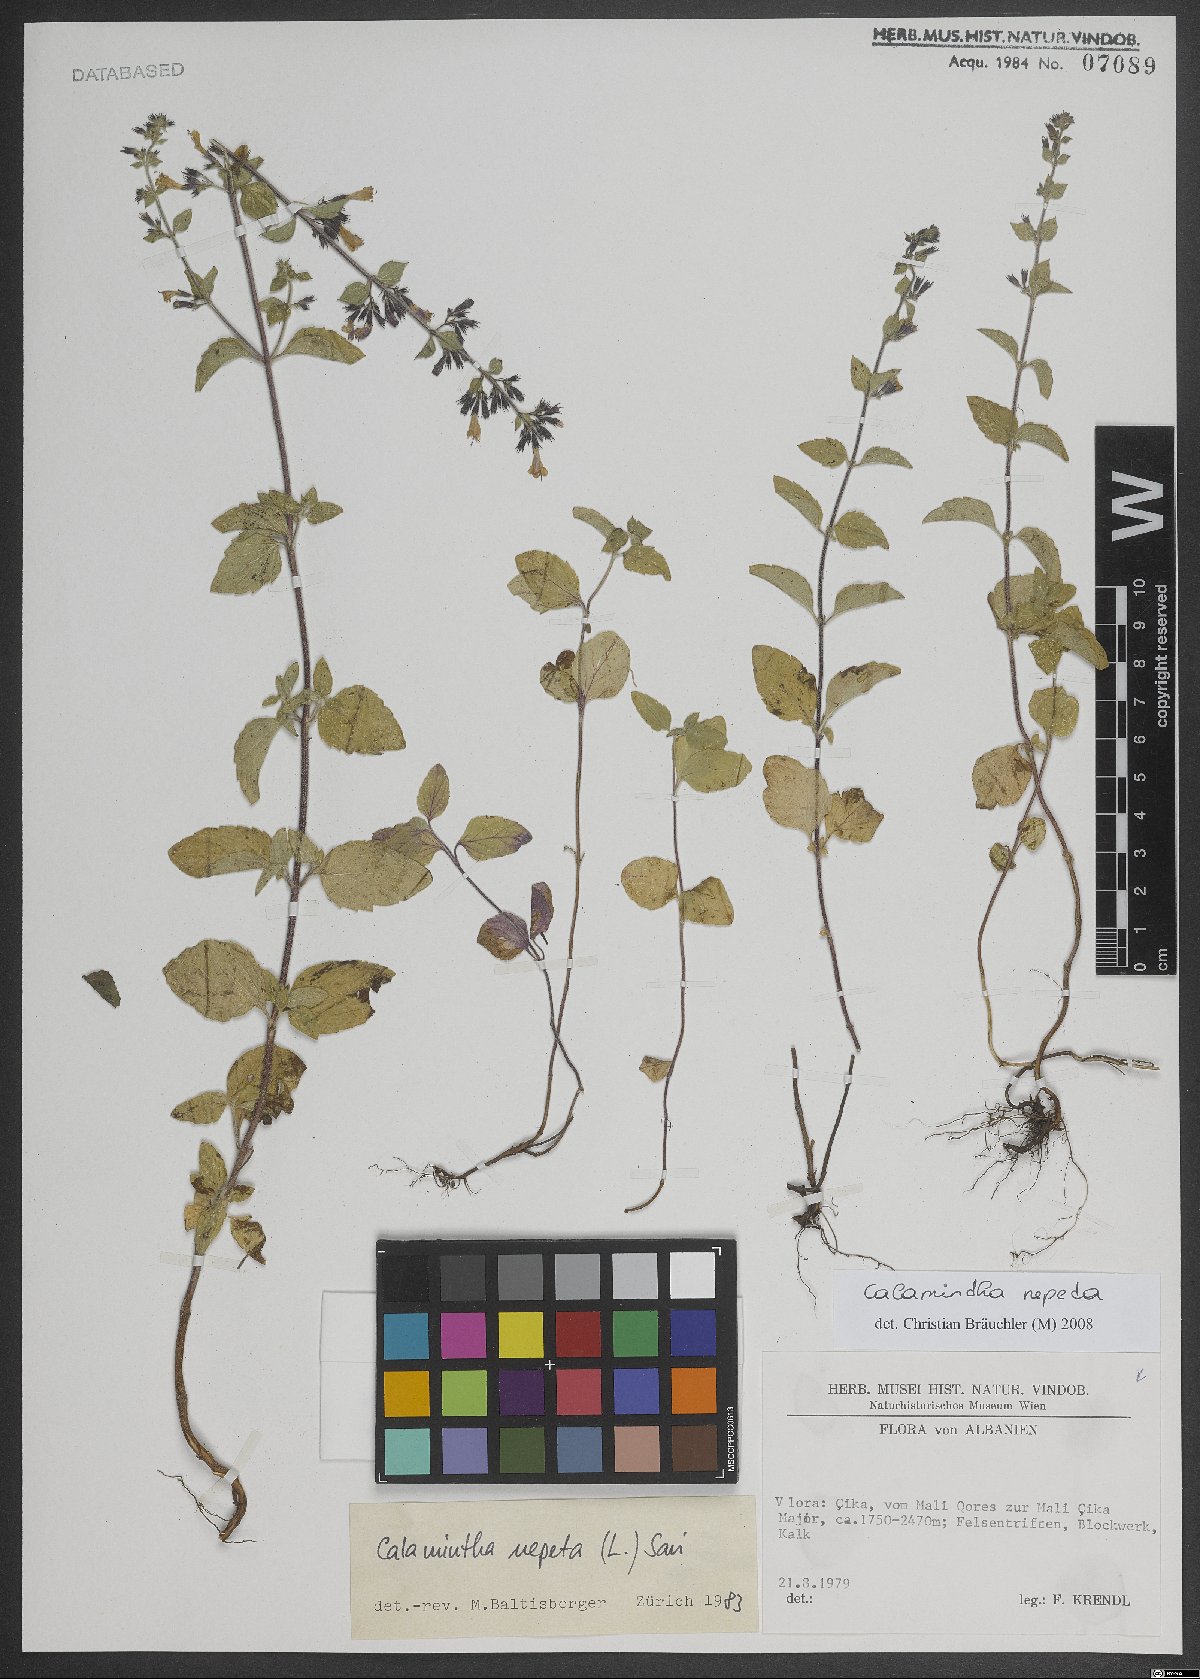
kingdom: Plantae
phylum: Tracheophyta
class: Magnoliopsida
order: Lamiales
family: Lamiaceae
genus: Clinopodium
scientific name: Clinopodium nepeta
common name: Lesser calamint
